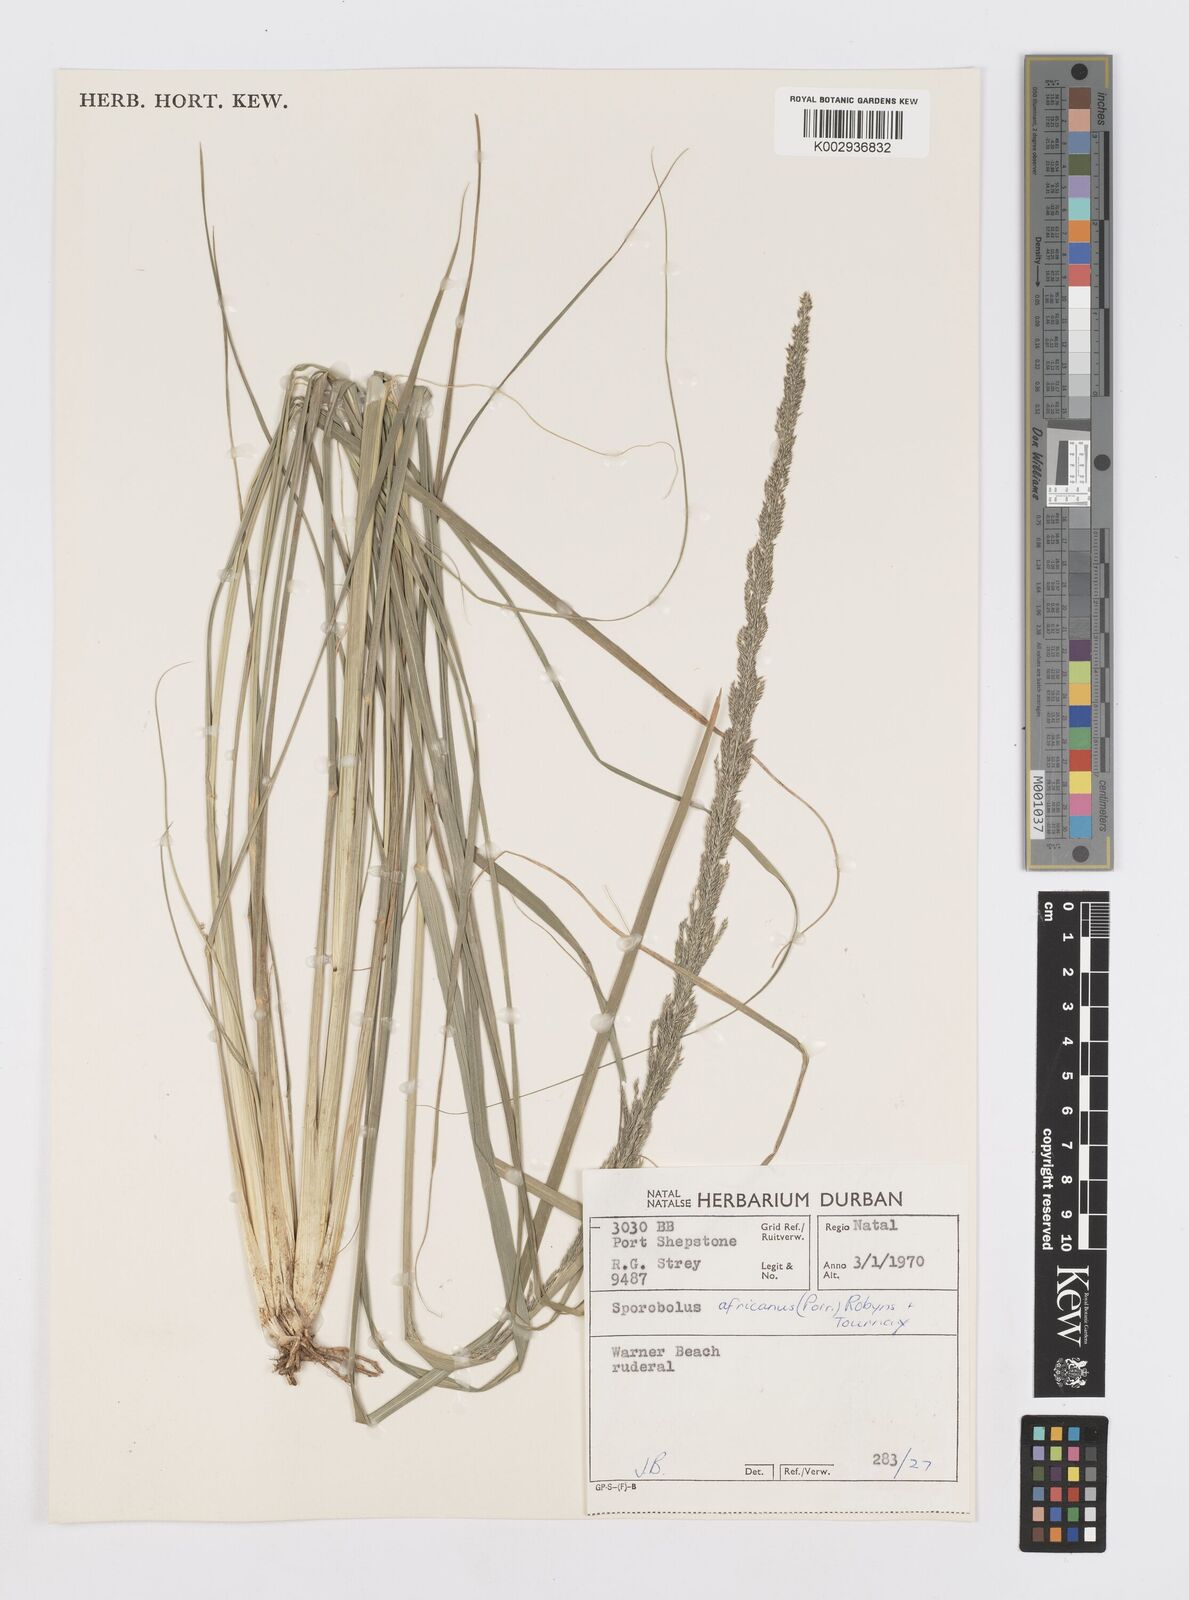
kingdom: Plantae
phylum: Tracheophyta
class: Liliopsida
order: Poales
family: Poaceae
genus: Sporobolus
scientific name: Sporobolus africanus
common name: African dropseed
